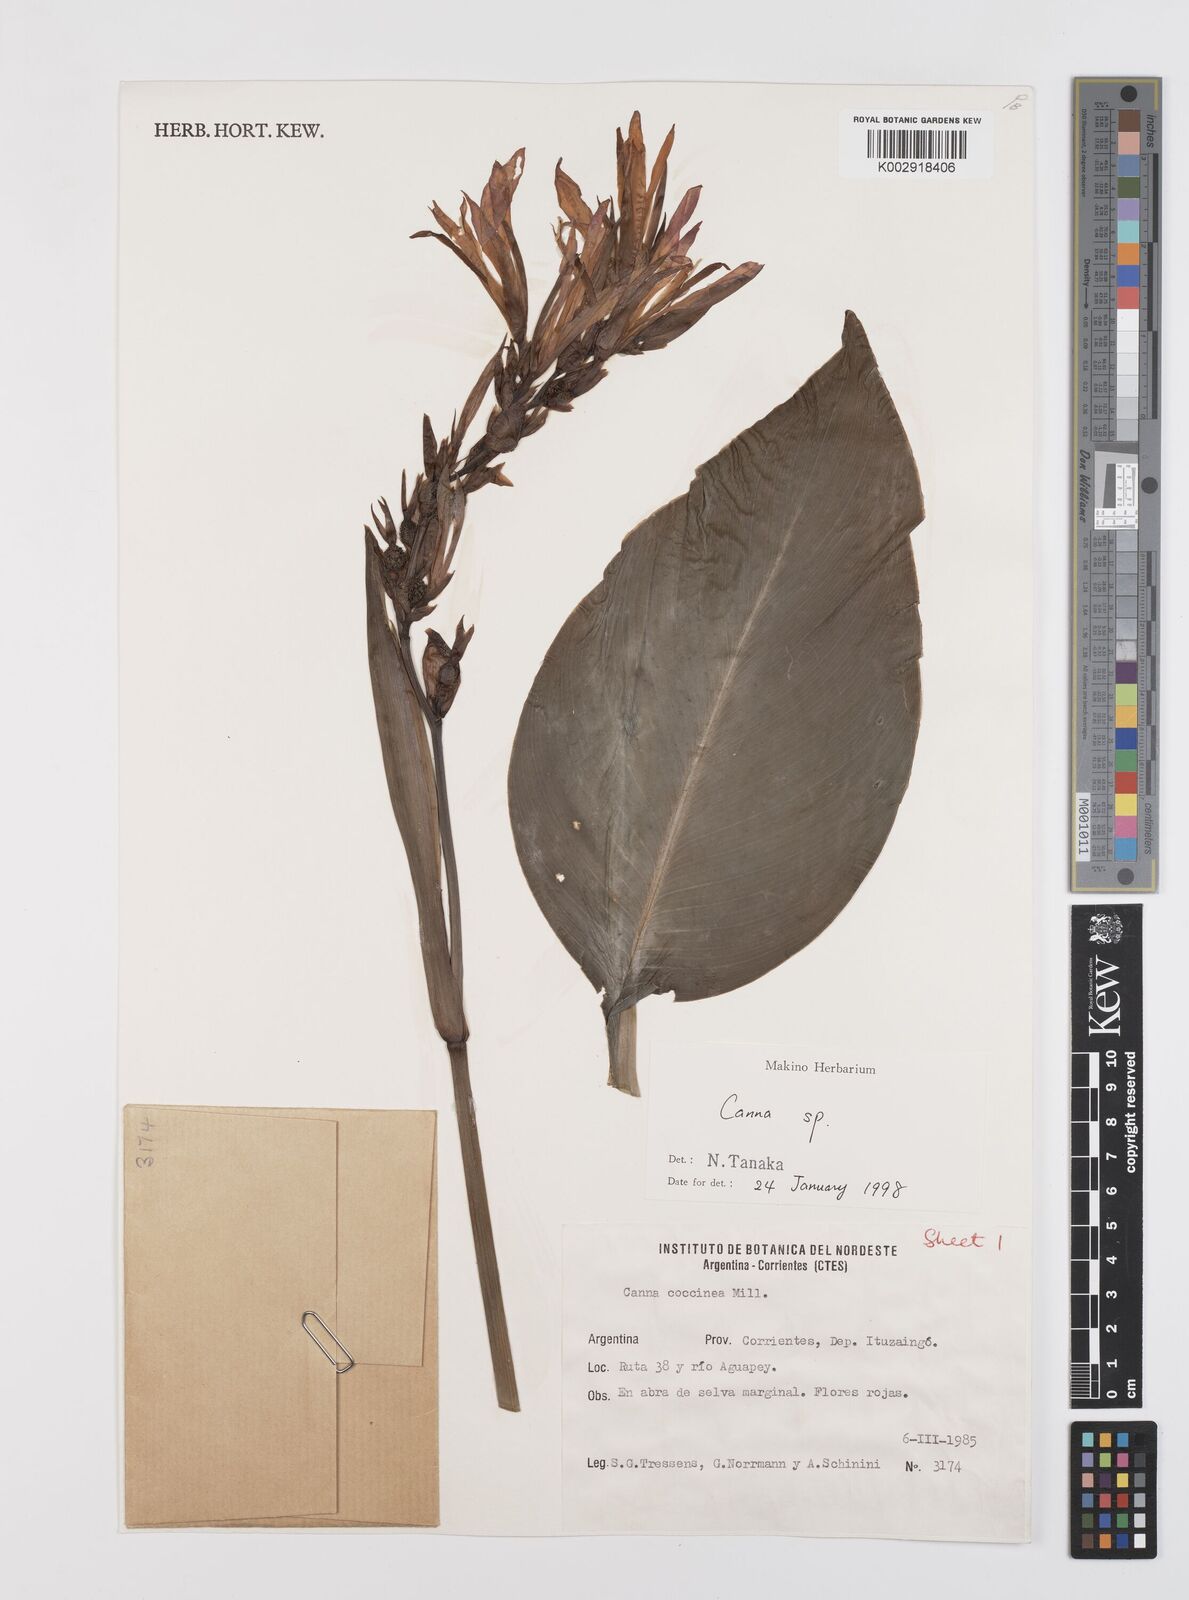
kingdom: Plantae
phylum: Tracheophyta
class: Liliopsida
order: Zingiberales
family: Cannaceae
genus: Canna
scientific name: Canna indica
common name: Indian shot
